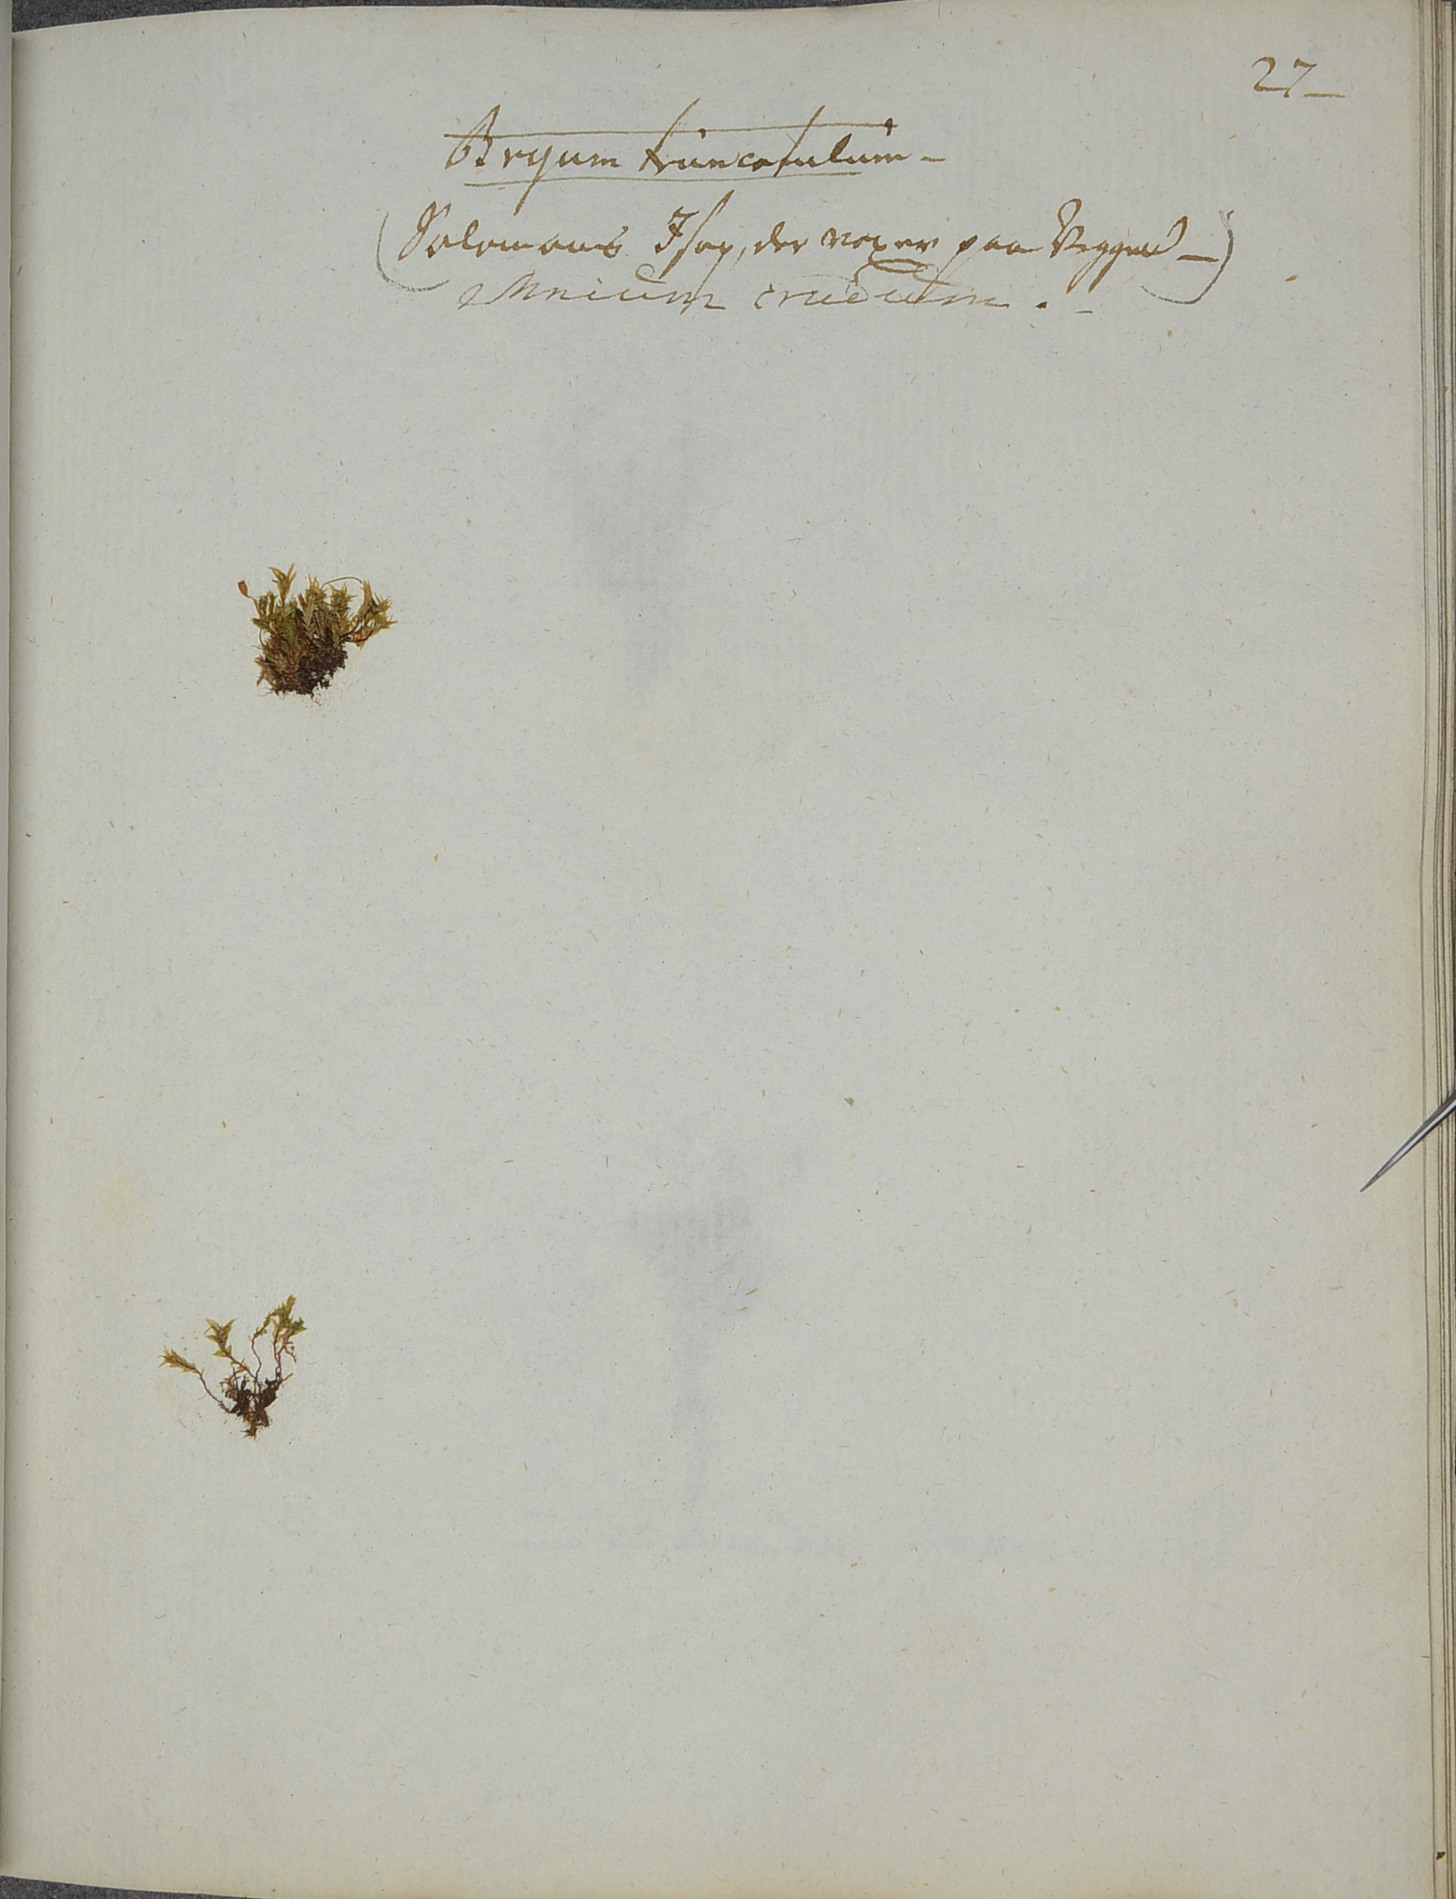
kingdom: Plantae
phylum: Bryophyta
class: Bryopsida
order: Bryales
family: Mniaceae
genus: Pohlia
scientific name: Pohlia cruda
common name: Opal nodding moss
